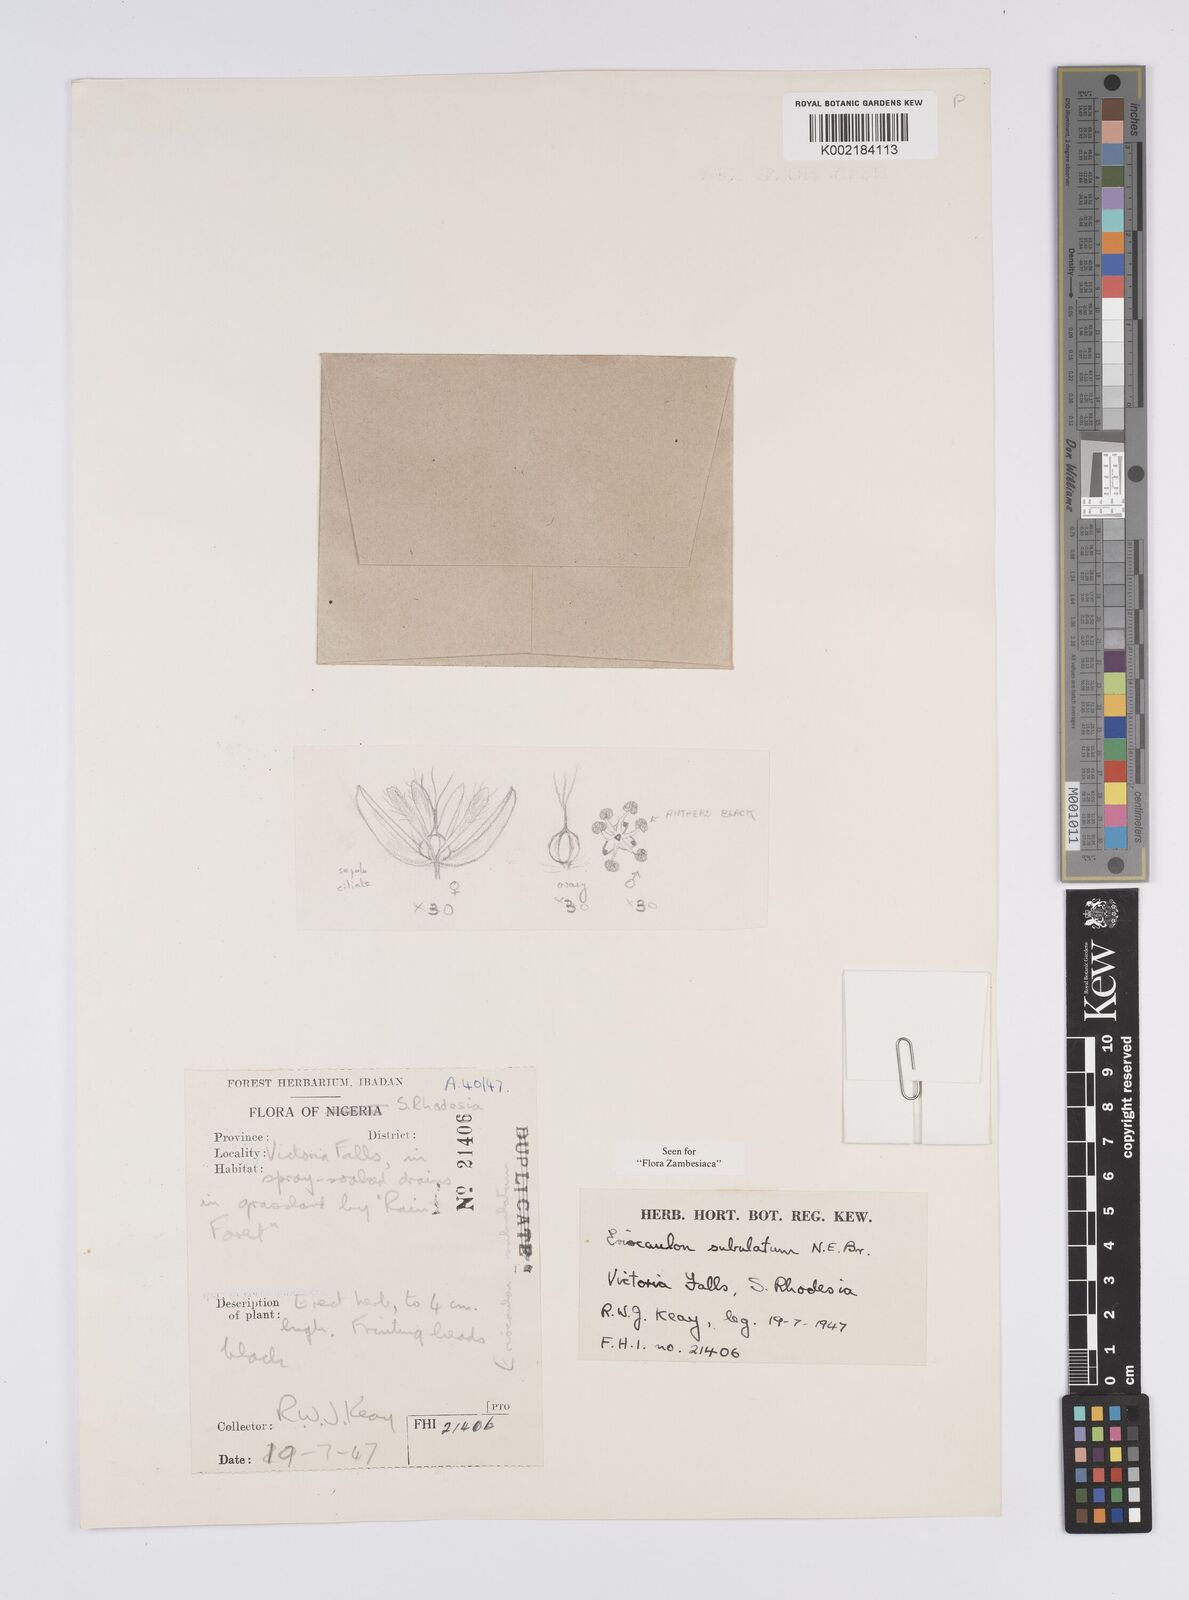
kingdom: Plantae
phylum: Tracheophyta
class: Liliopsida
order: Poales
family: Eriocaulaceae
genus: Eriocaulon
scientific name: Eriocaulon abyssinicum
